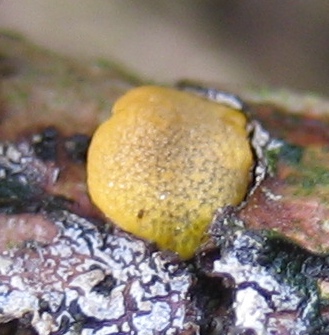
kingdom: Fungi
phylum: Ascomycota
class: Sordariomycetes
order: Hypocreales
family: Hypocreaceae
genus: Trichoderma
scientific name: Trichoderma aureoviride
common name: æggegul kødkerne
